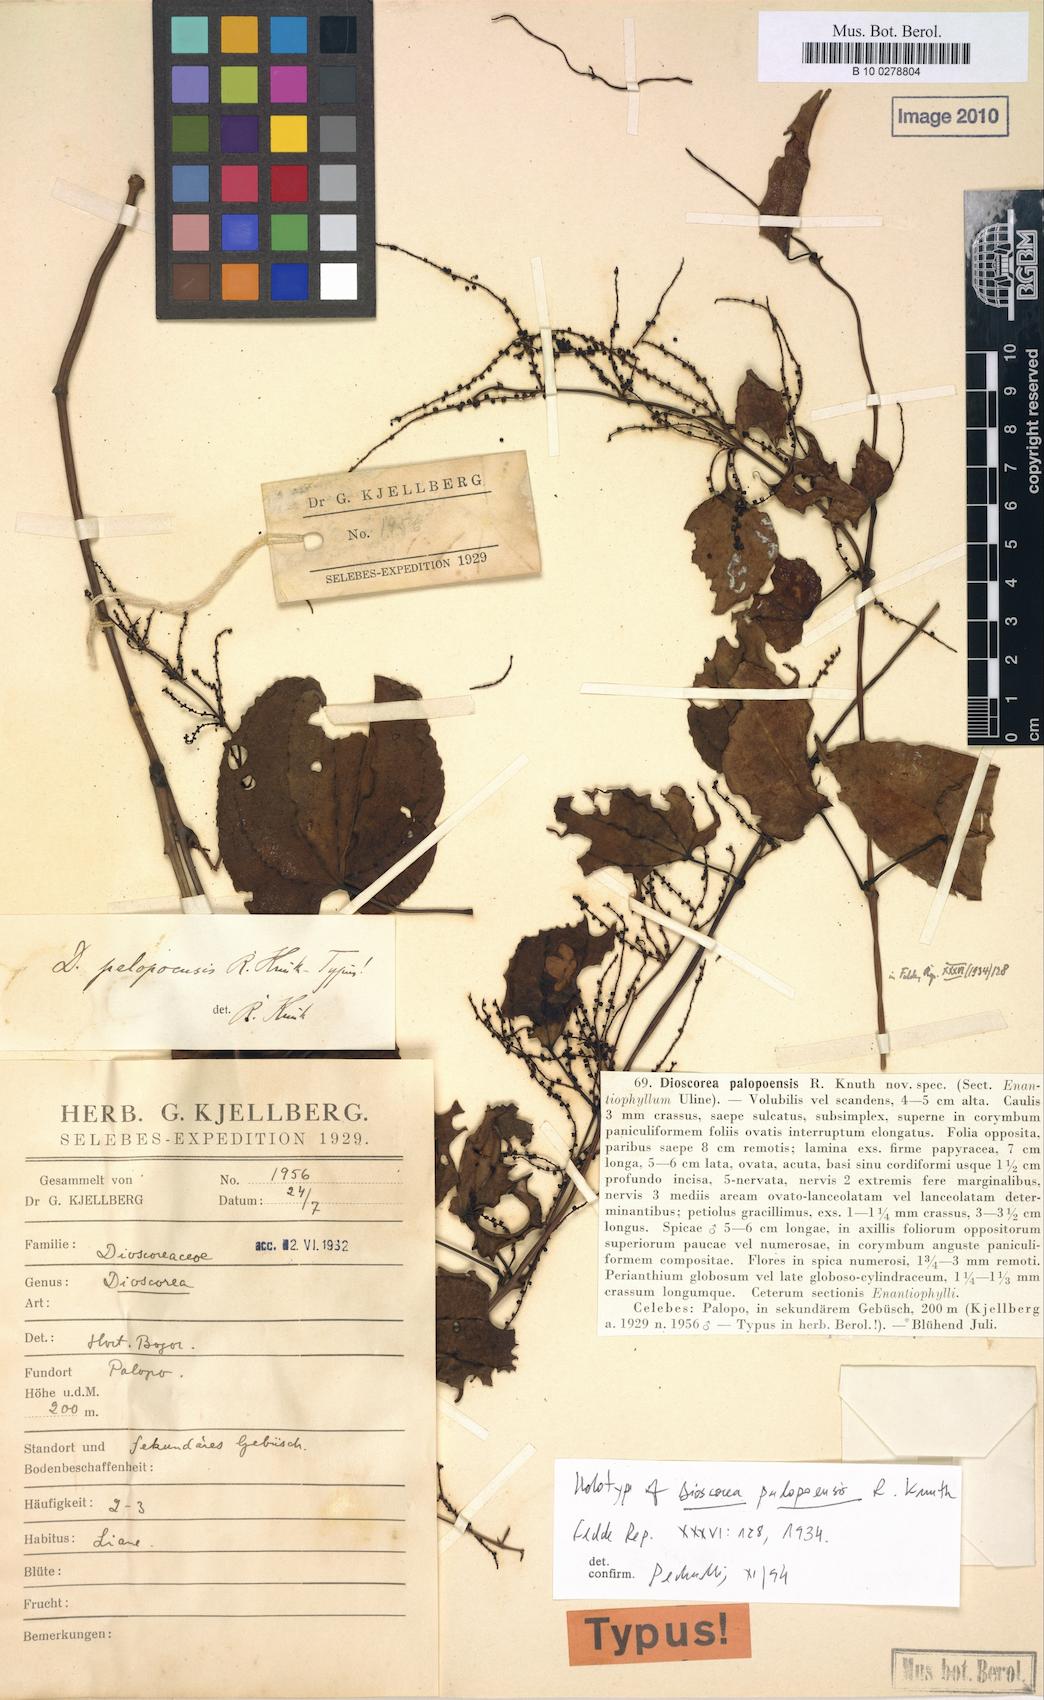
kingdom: Plantae
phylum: Tracheophyta
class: Liliopsida
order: Dioscoreales
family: Dioscoreaceae
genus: Dioscorea
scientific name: Dioscorea nummularia
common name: Pacific yam
